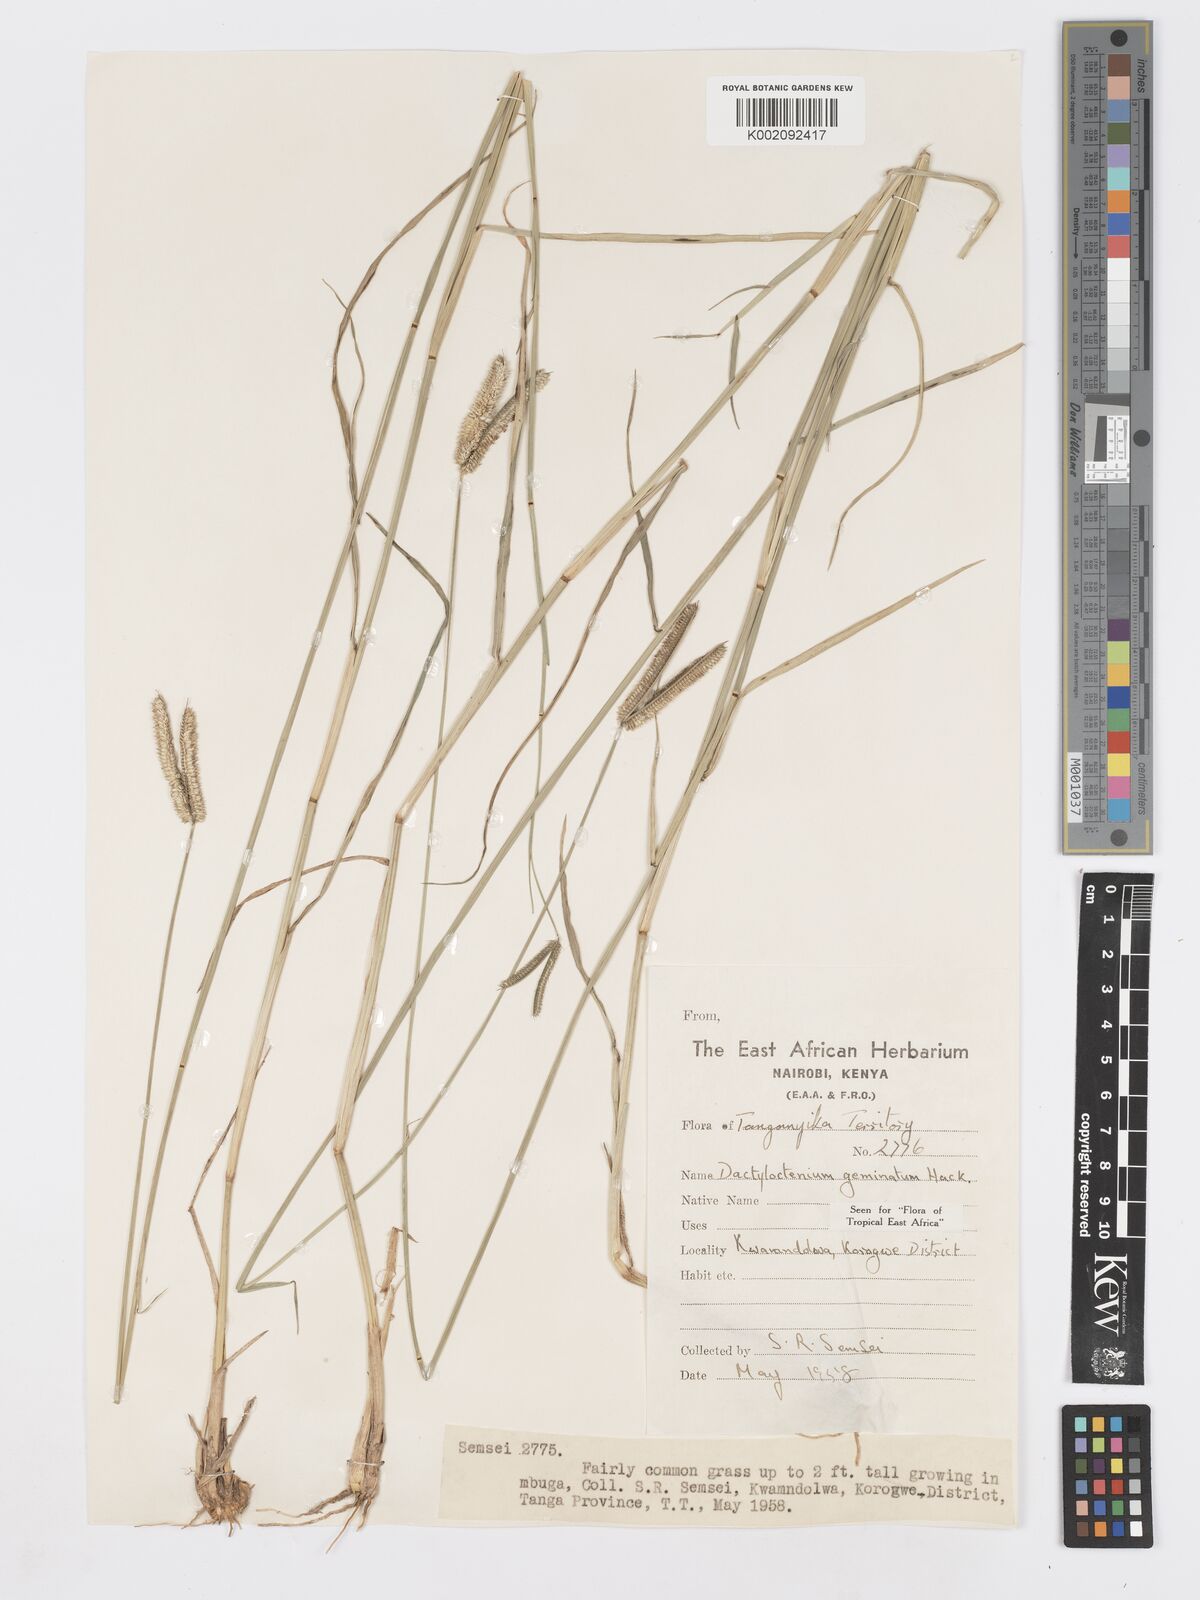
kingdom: Plantae
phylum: Tracheophyta
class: Liliopsida
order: Poales
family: Poaceae
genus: Dactyloctenium
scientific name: Dactyloctenium geminatum
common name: Crowsfoot grass
